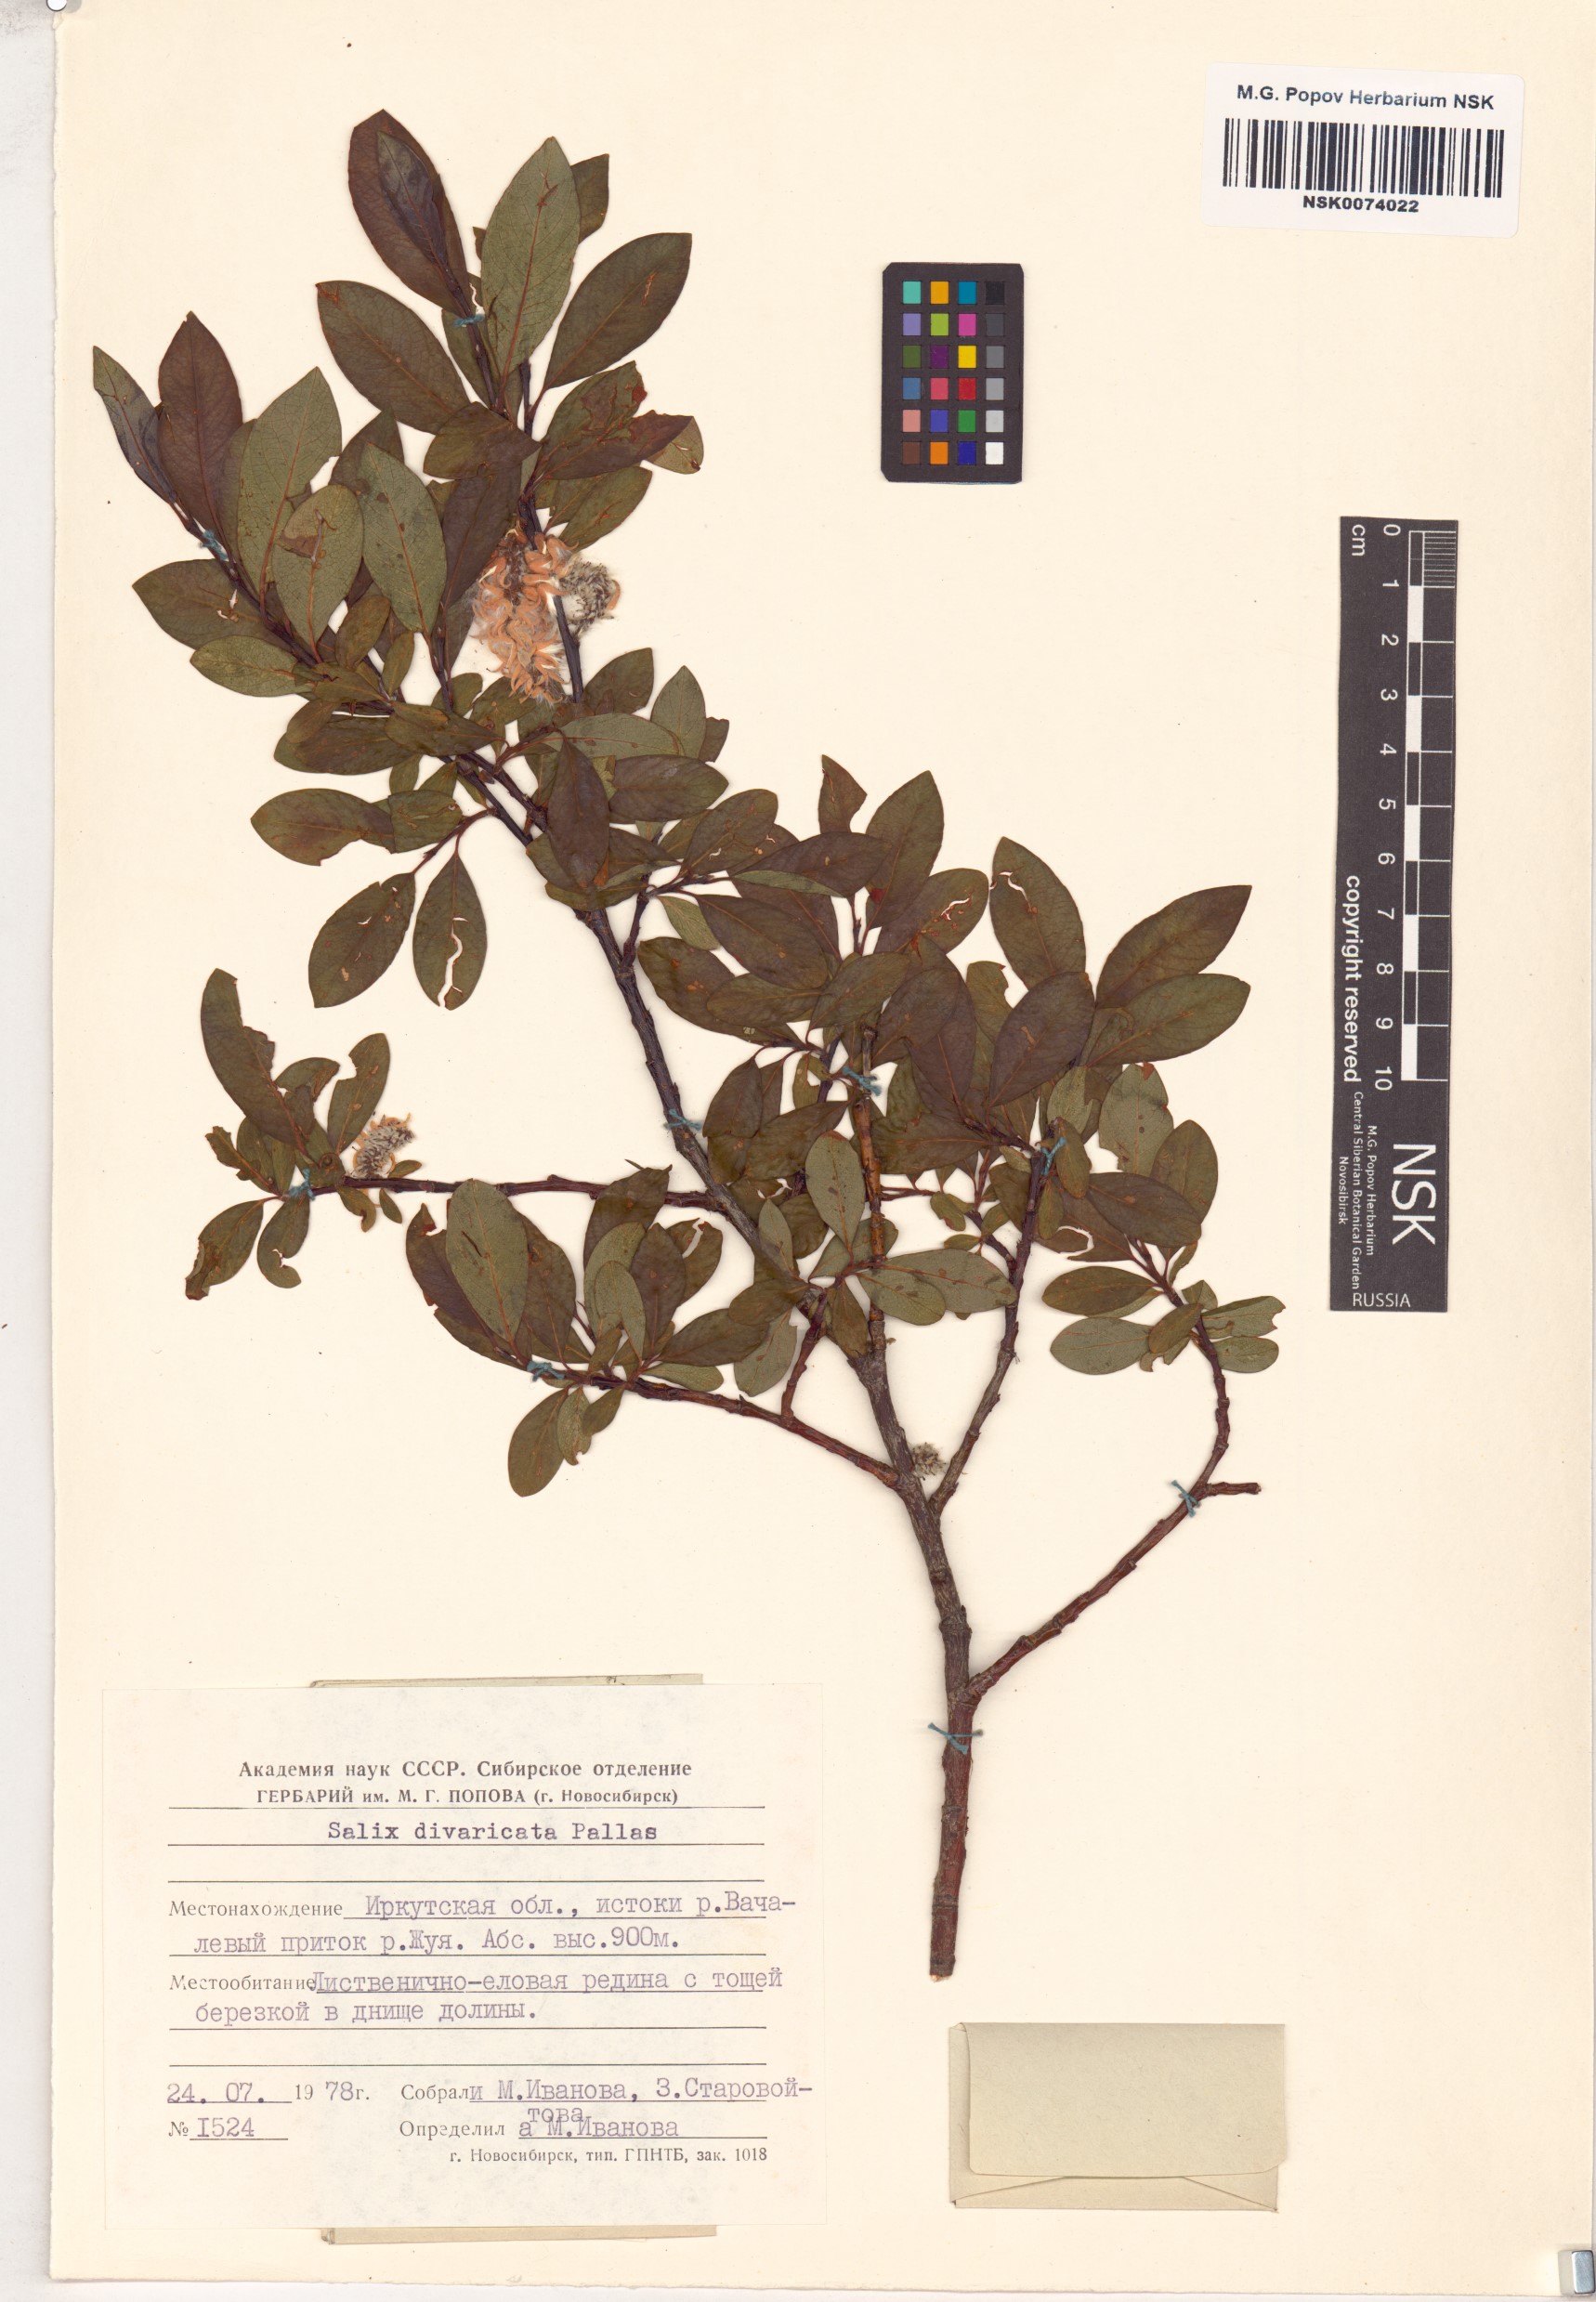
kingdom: Plantae
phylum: Tracheophyta
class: Magnoliopsida
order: Malpighiales
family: Salicaceae
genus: Salix
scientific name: Salix divaricata
